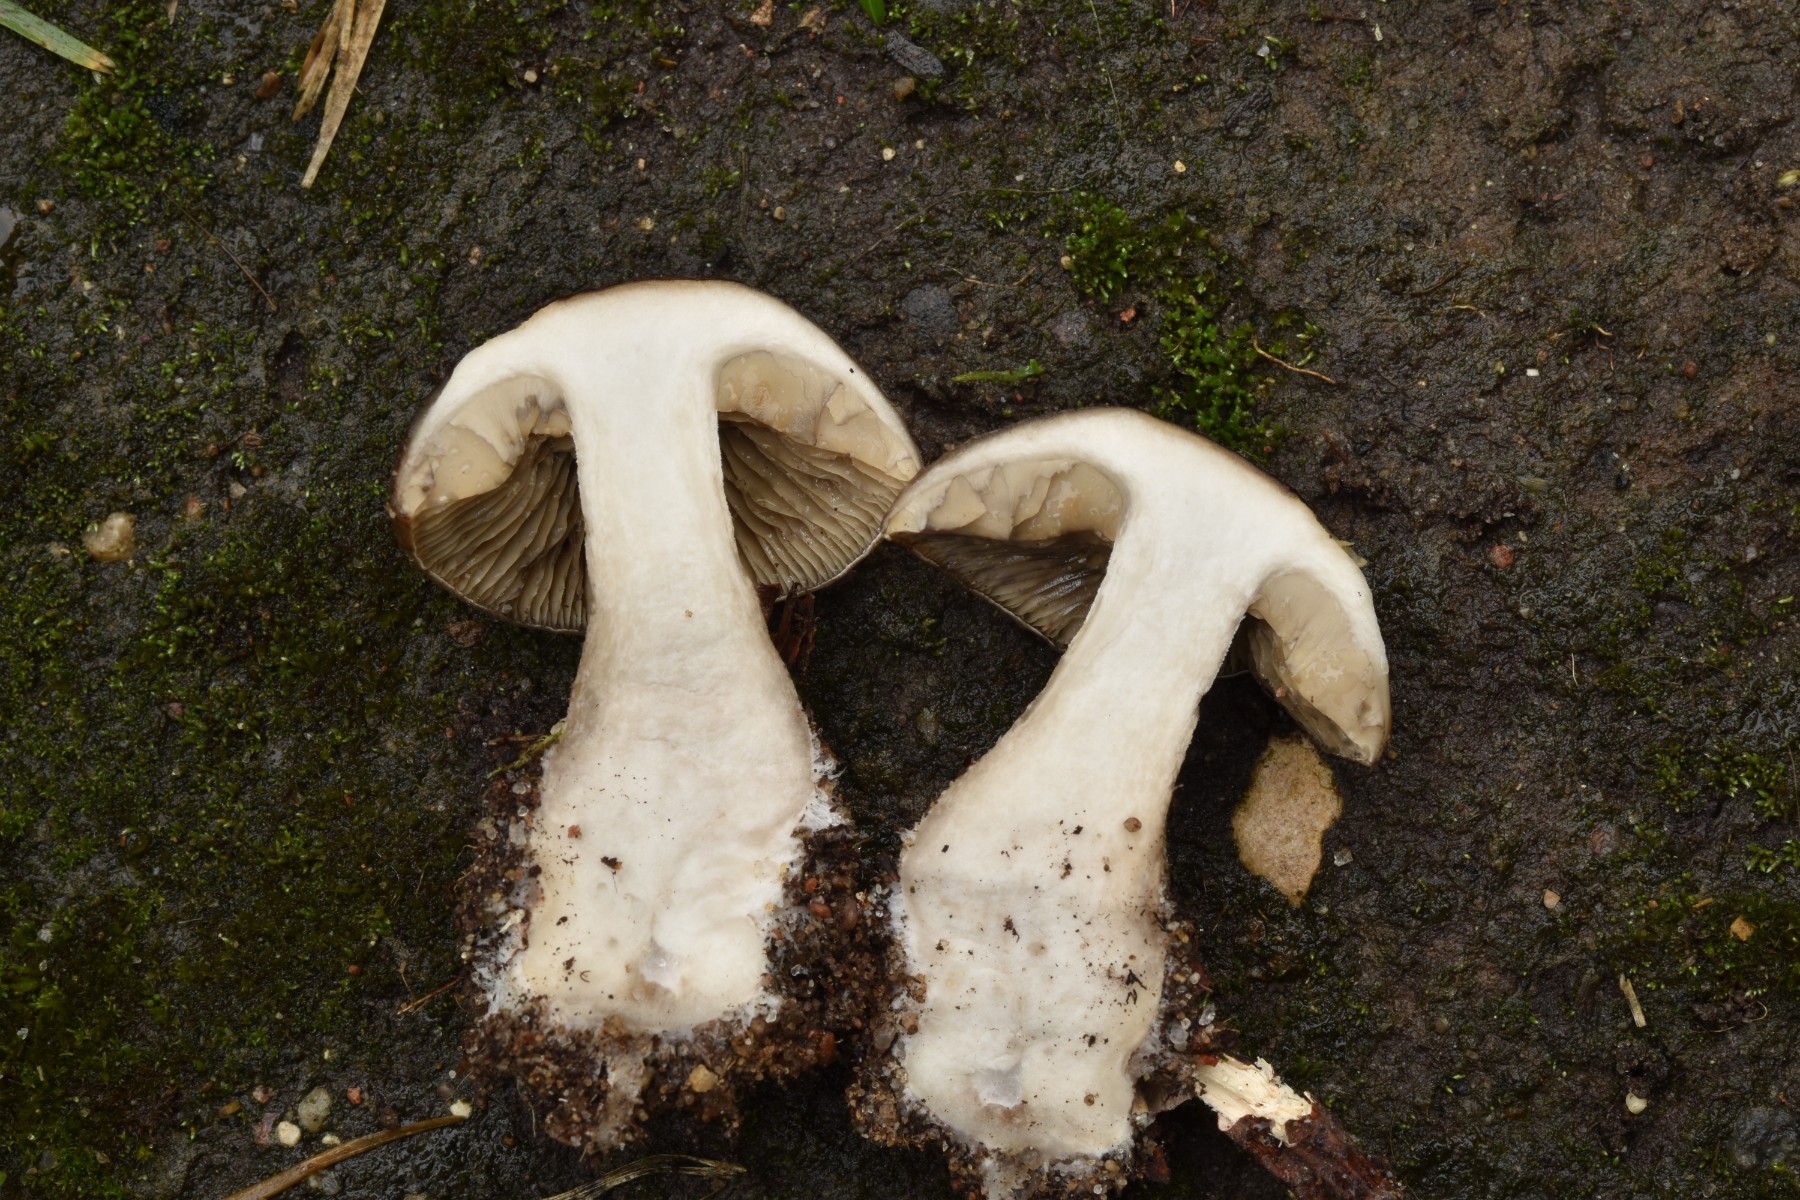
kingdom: Fungi
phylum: Basidiomycota
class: Agaricomycetes
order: Agaricales
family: Lyophyllaceae
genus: Lyophyllum
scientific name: Lyophyllum deliberatum
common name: gråbrun gråblad
